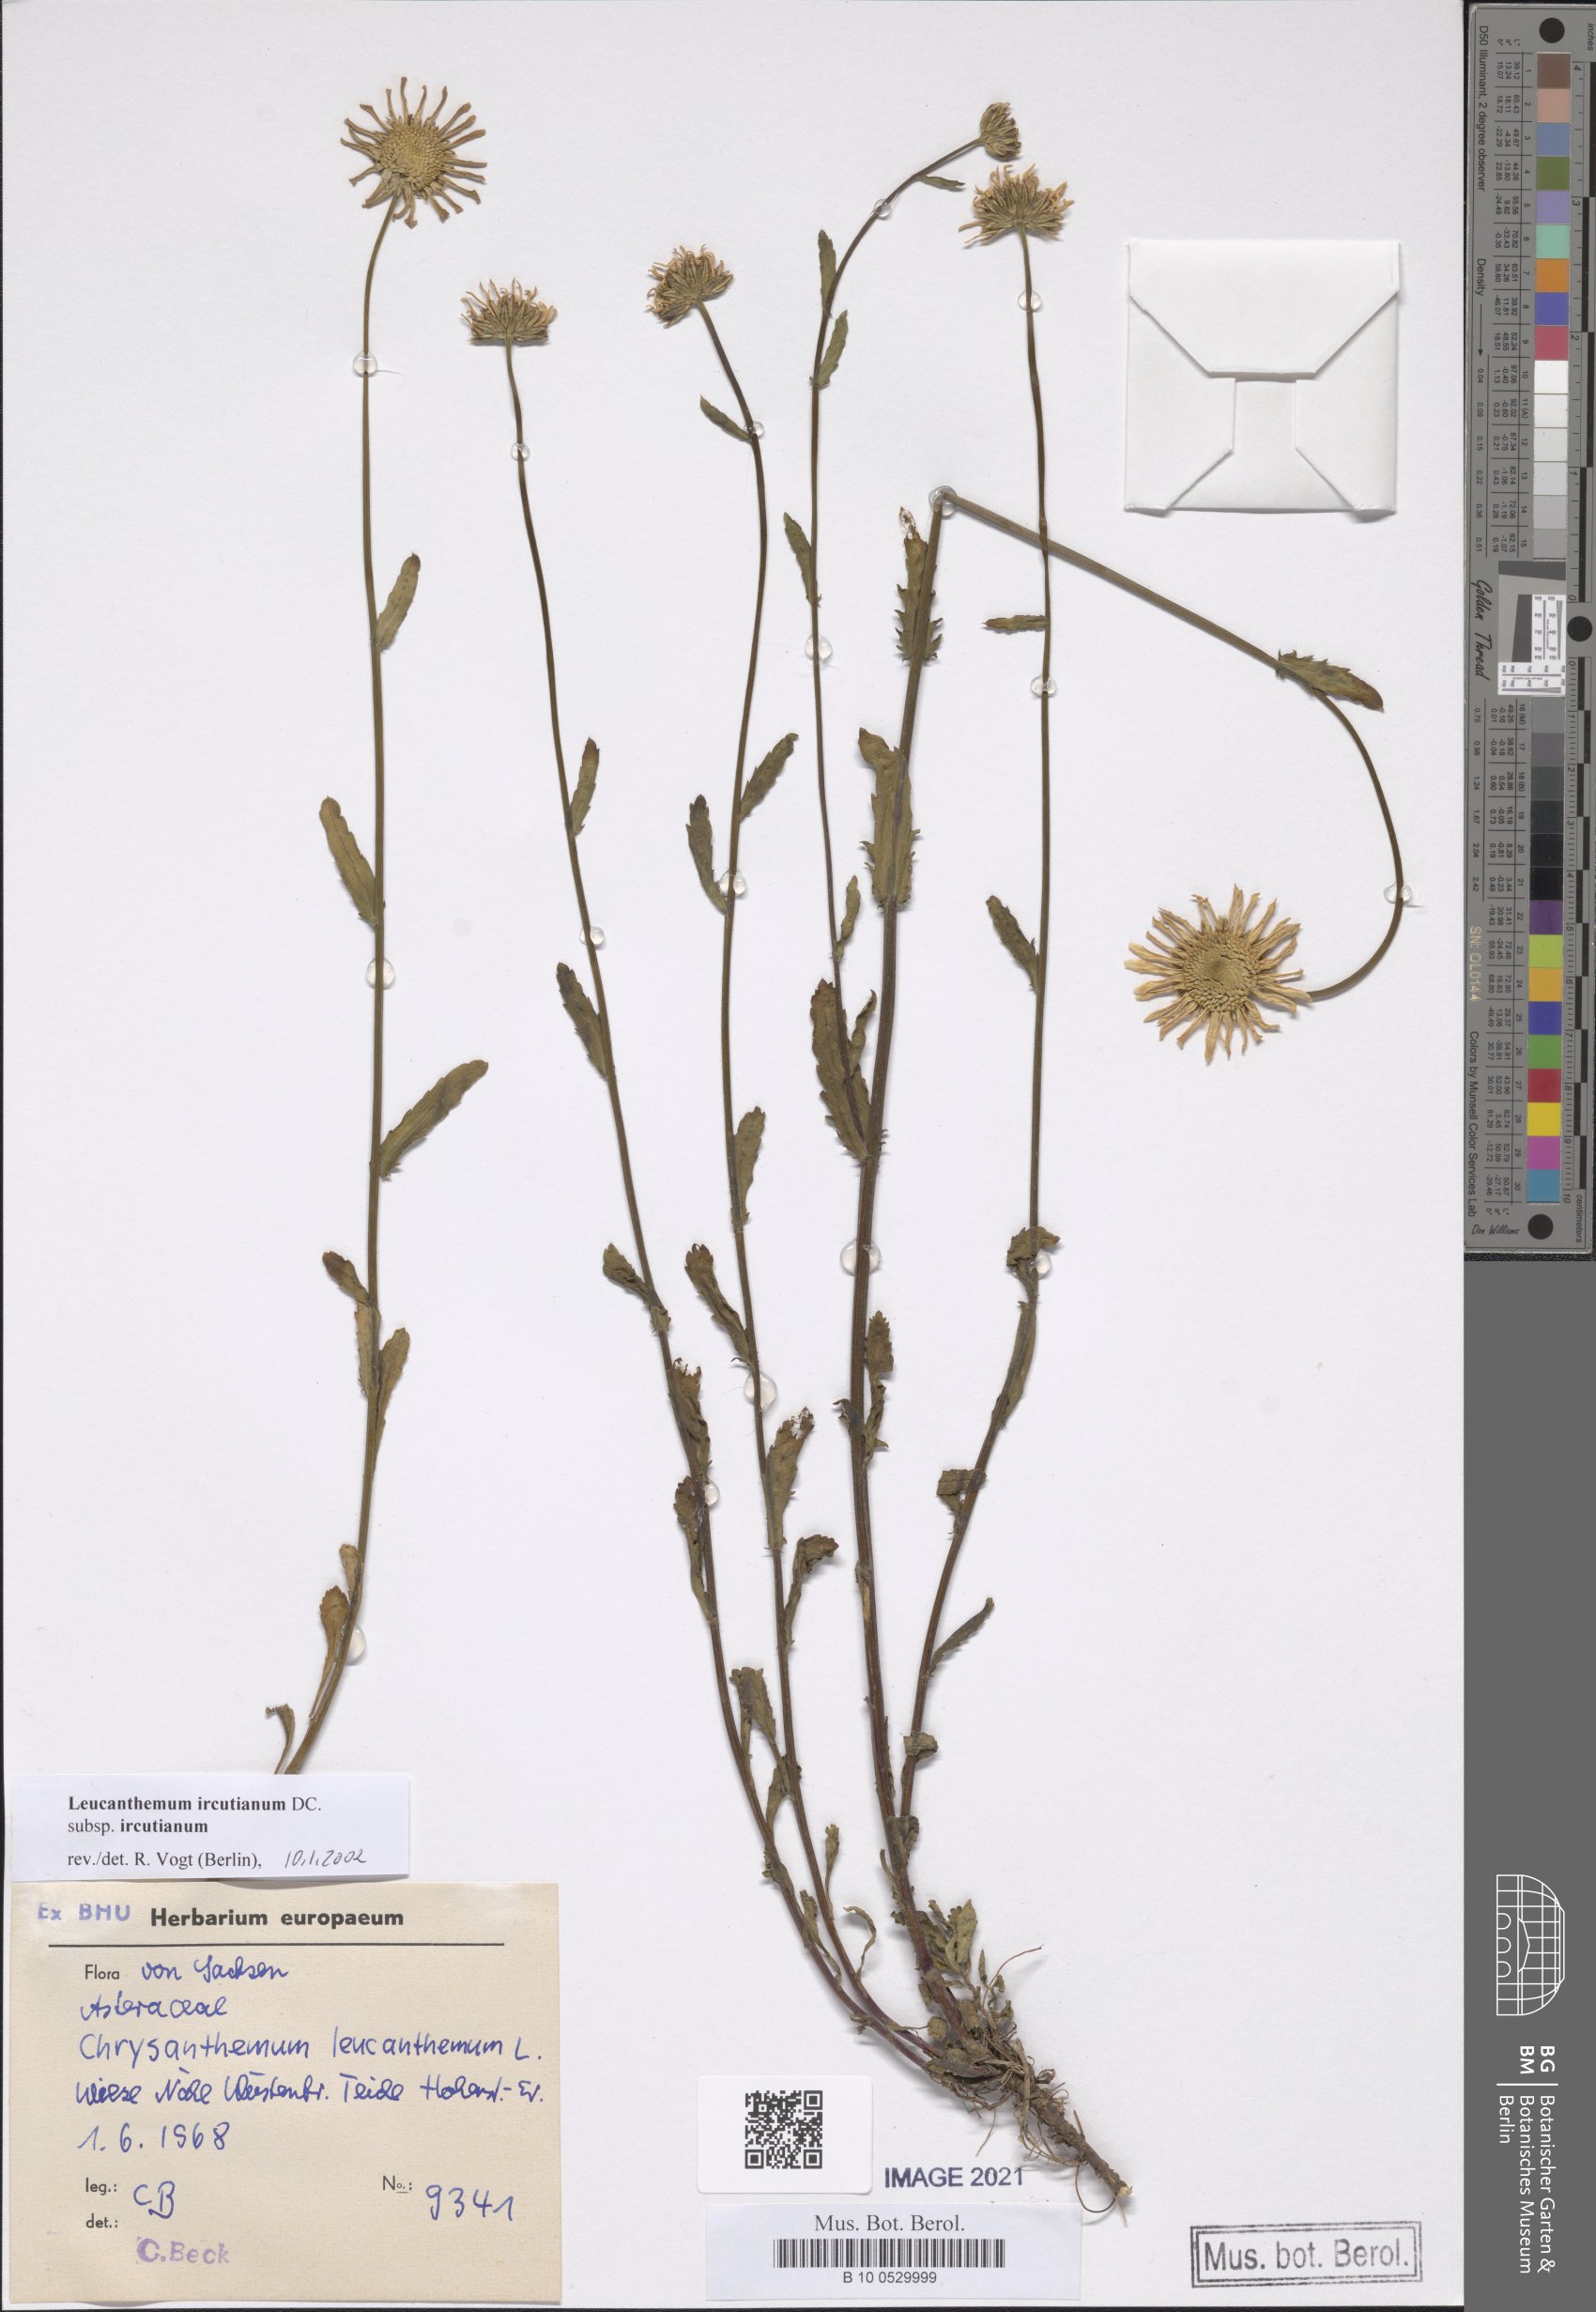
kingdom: Plantae
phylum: Tracheophyta
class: Magnoliopsida
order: Asterales
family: Asteraceae
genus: Leucanthemum
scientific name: Leucanthemum ircutianum
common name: Daisy
